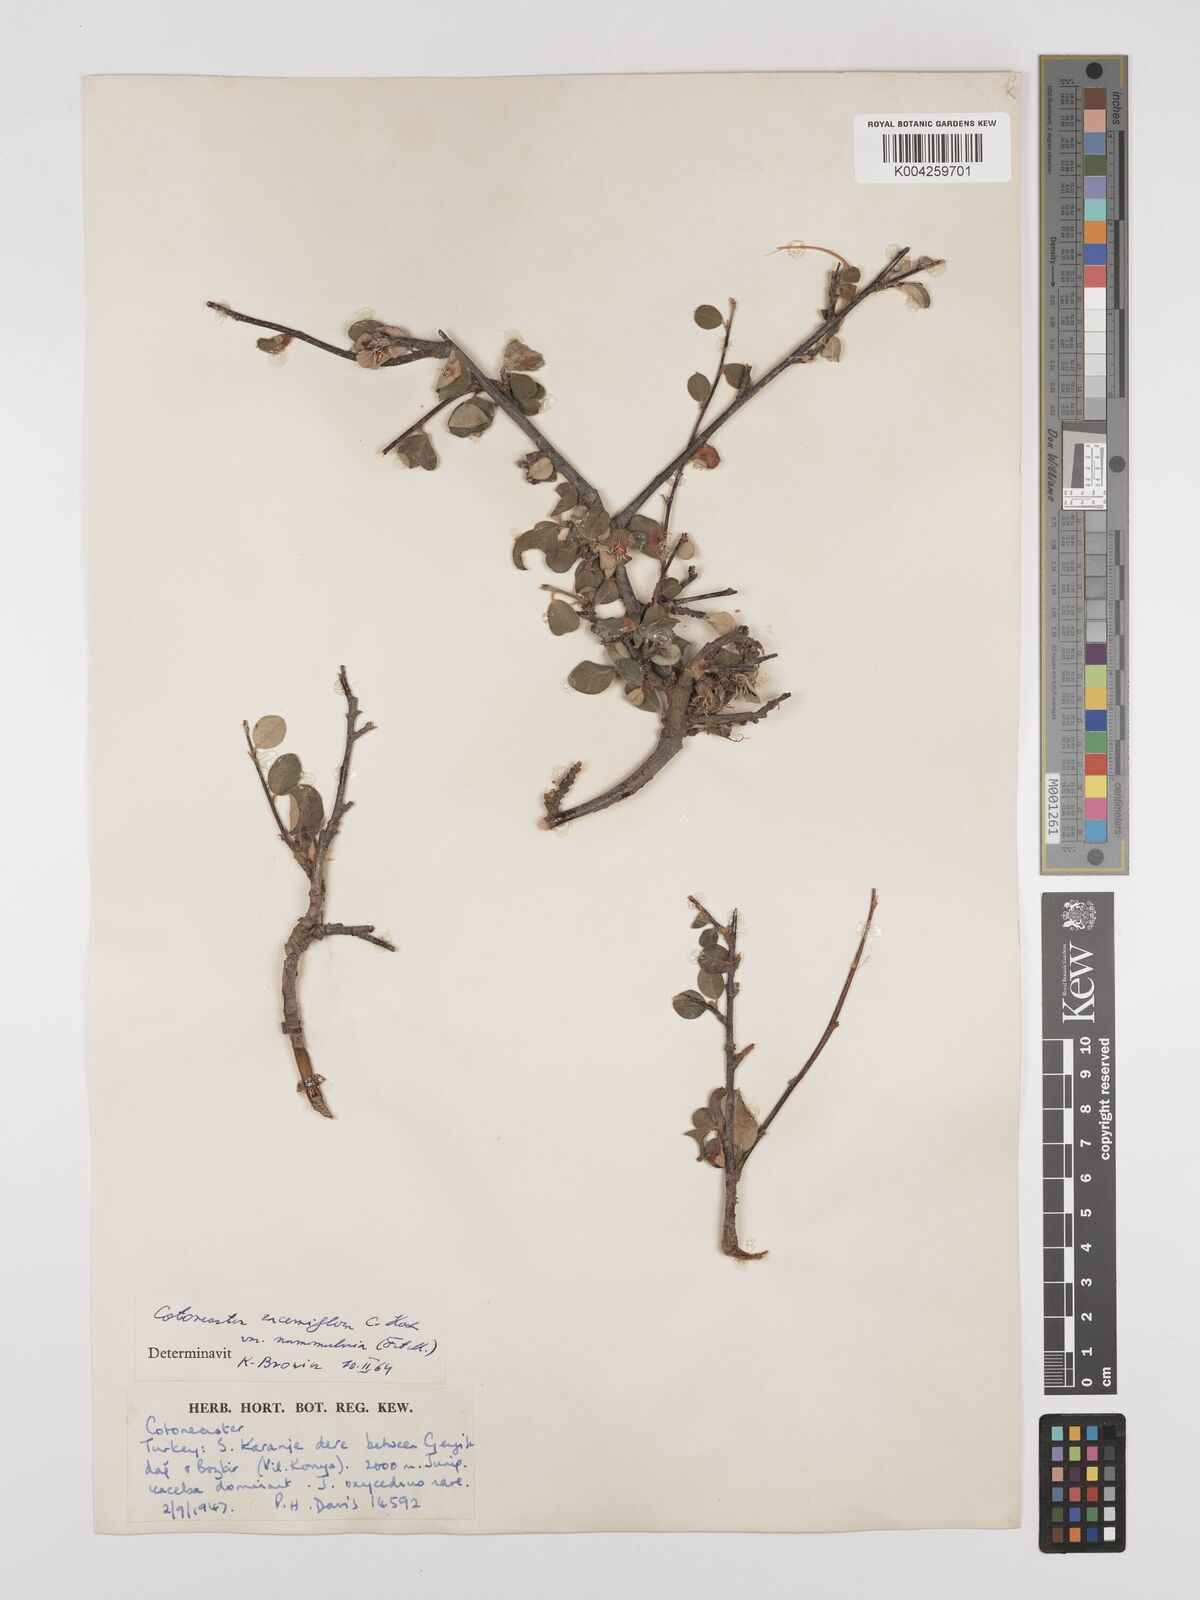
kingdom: Plantae
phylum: Tracheophyta
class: Magnoliopsida
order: Rosales
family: Rosaceae
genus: Cotoneaster
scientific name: Cotoneaster racemiflorus
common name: Cluster-flower cotoneaster
